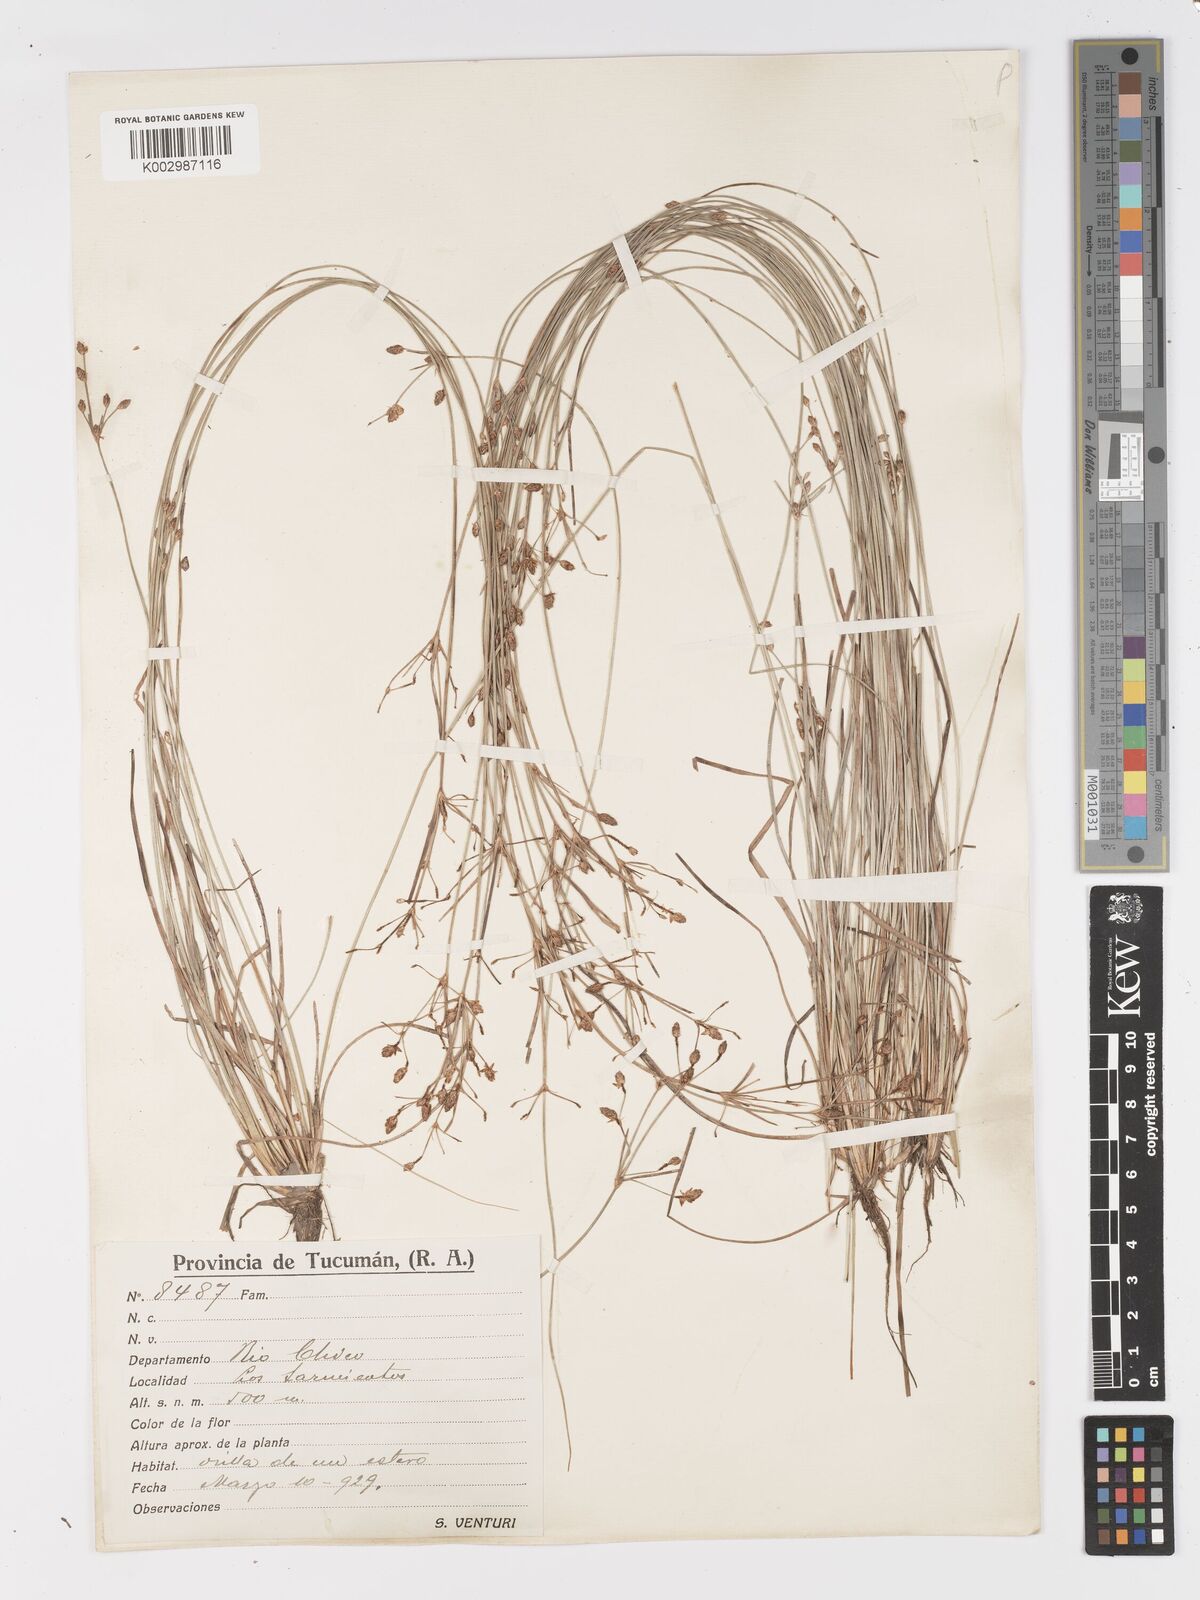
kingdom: Plantae
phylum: Tracheophyta
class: Liliopsida
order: Poales
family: Cyperaceae
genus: Fimbristylis
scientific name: Fimbristylis dichotoma
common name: Forked fimbry
